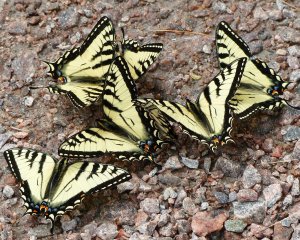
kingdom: Animalia
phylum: Arthropoda
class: Insecta
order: Lepidoptera
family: Papilionidae
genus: Pterourus
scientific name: Pterourus canadensis
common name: Canadian Tiger Swallowtail
